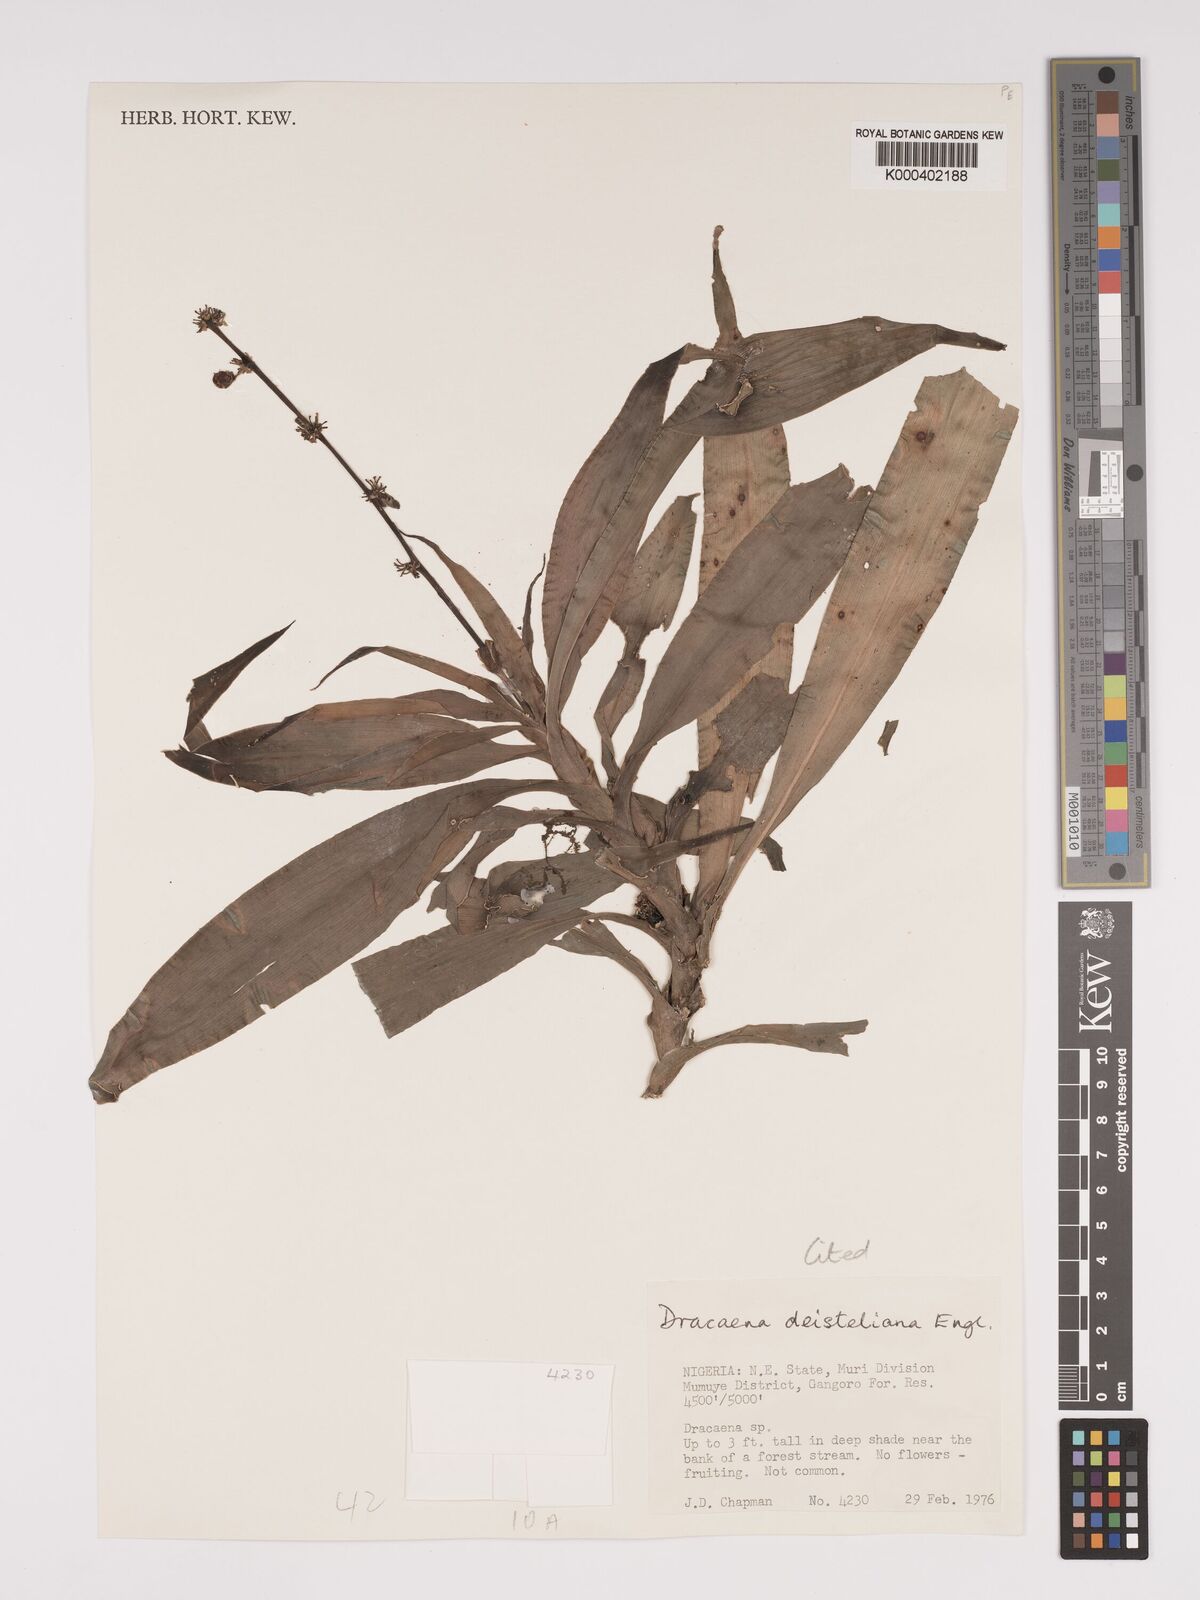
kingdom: Plantae
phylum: Tracheophyta
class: Liliopsida
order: Asparagales
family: Asparagaceae
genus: Dracaena
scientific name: Dracaena fragrans
